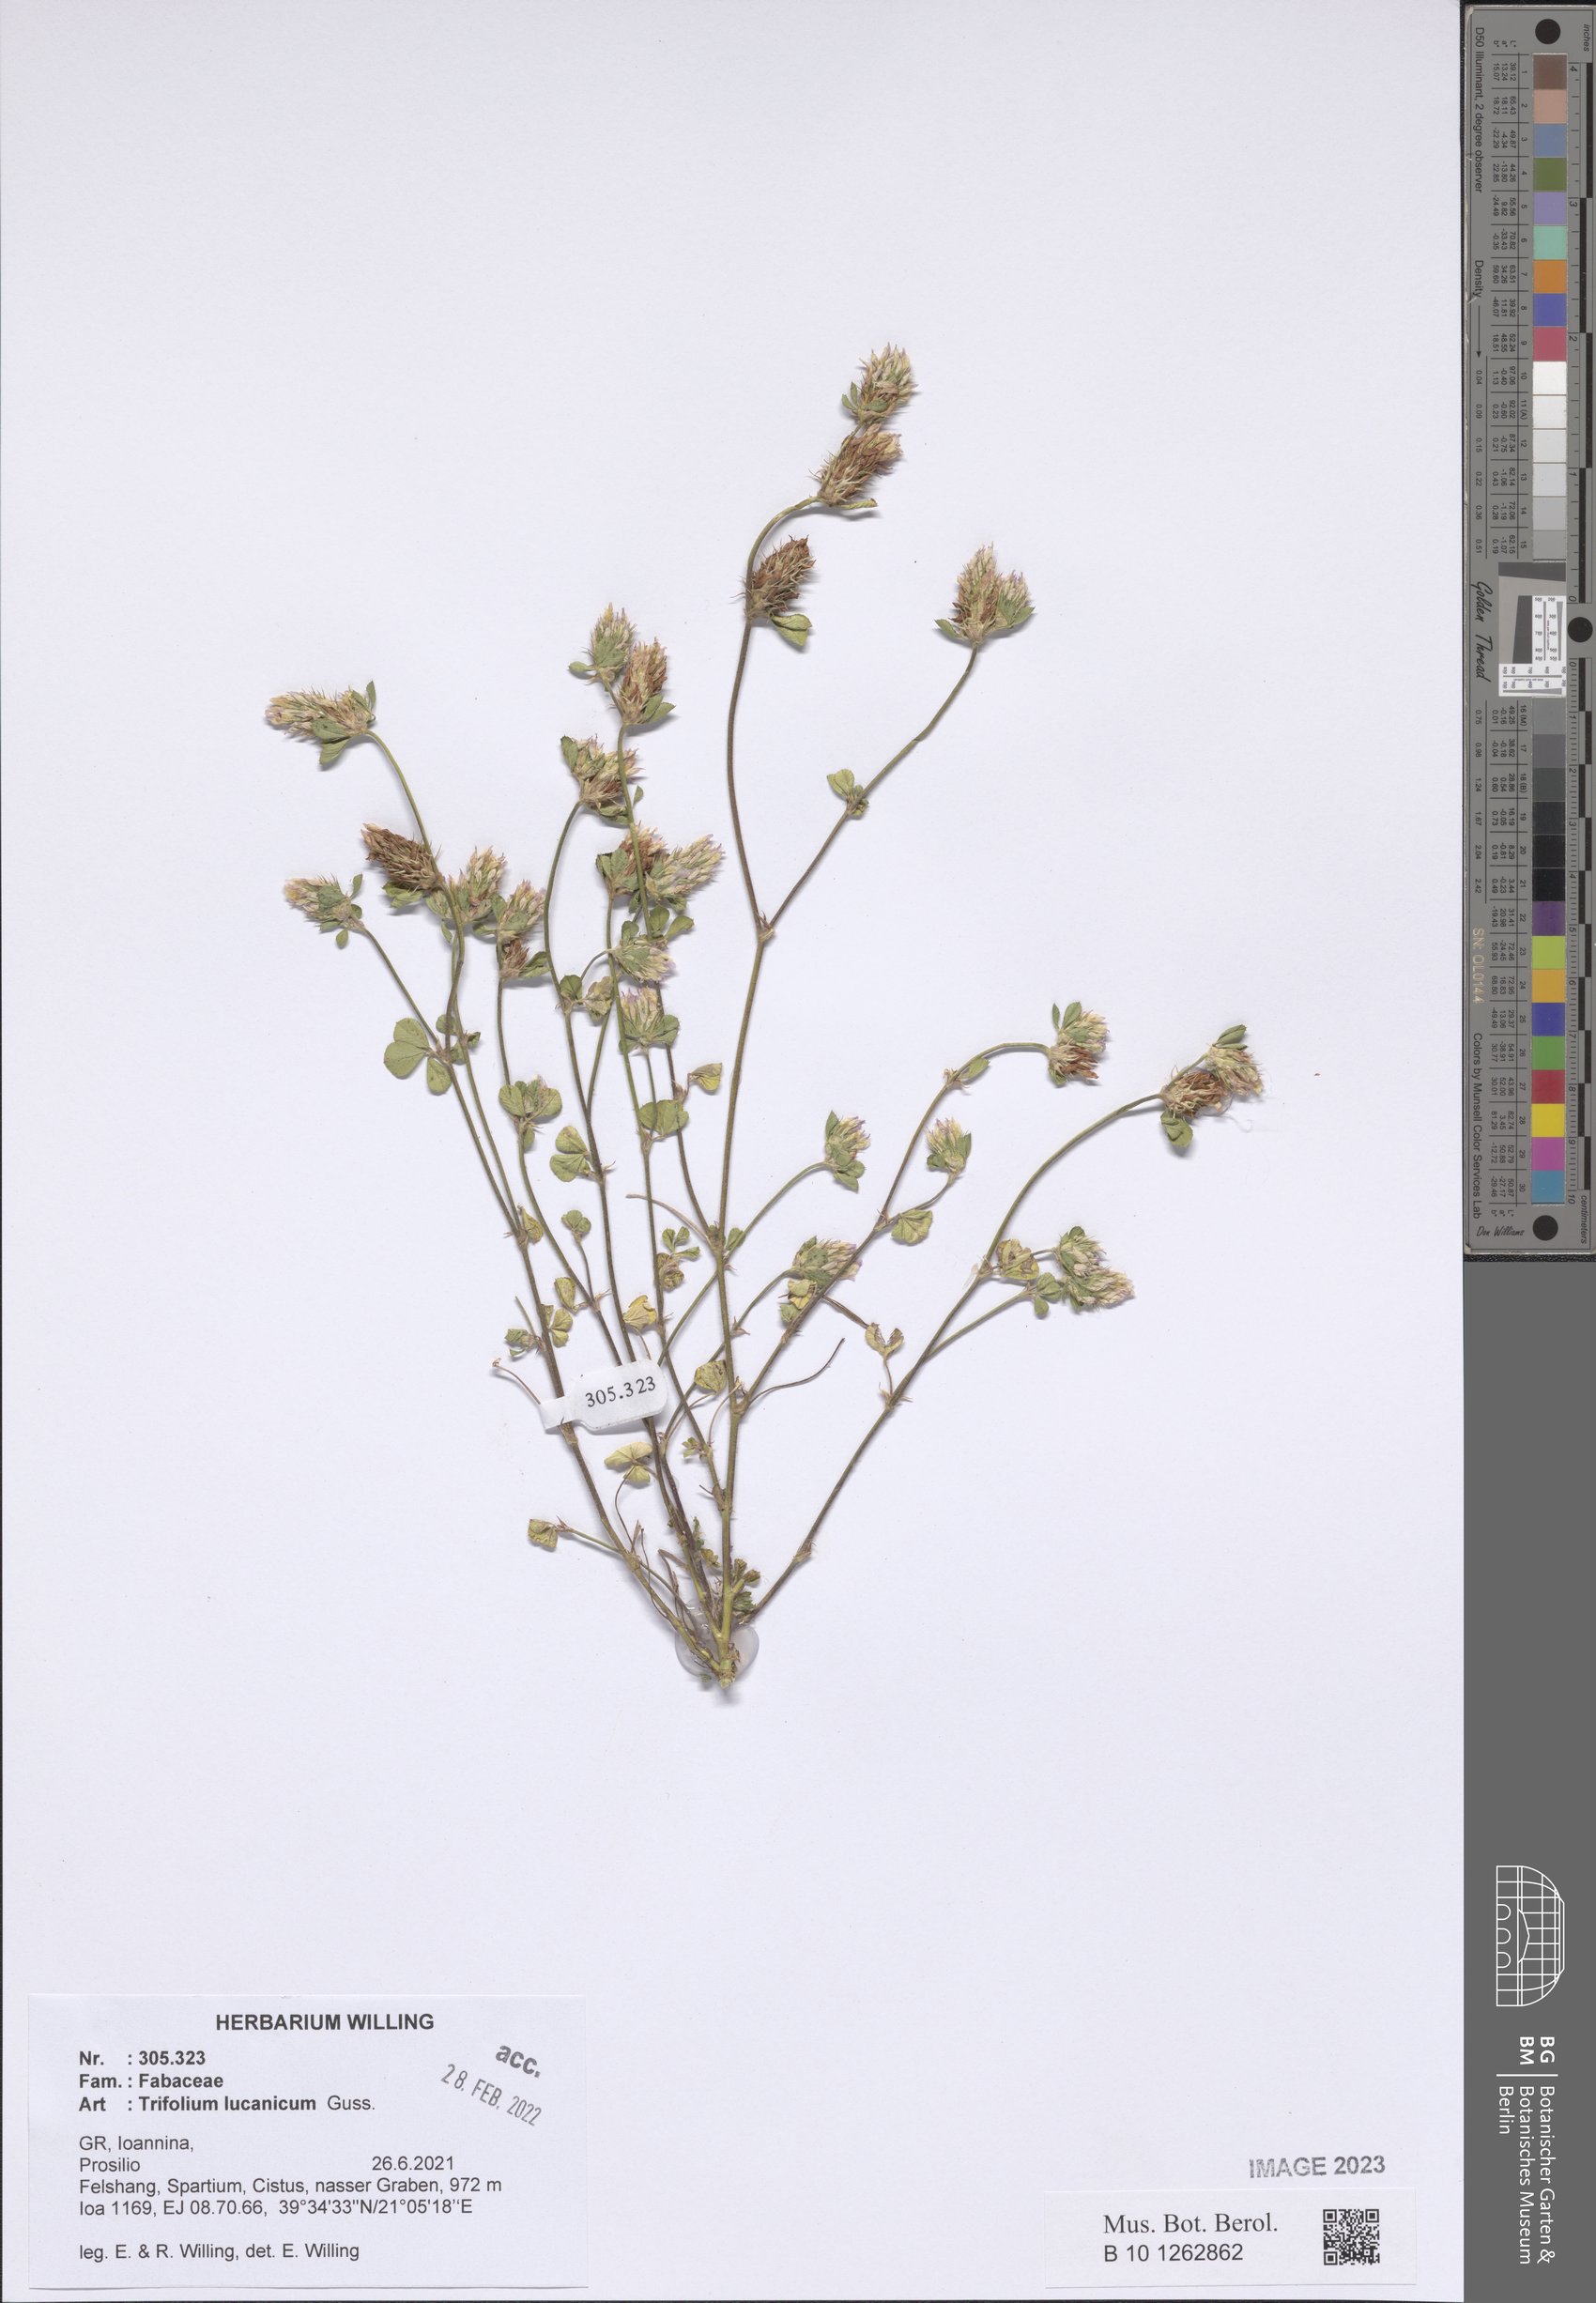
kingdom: Plantae
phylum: Tracheophyta
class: Magnoliopsida
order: Fabales
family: Fabaceae
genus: Trifolium
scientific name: Trifolium lucanicum
